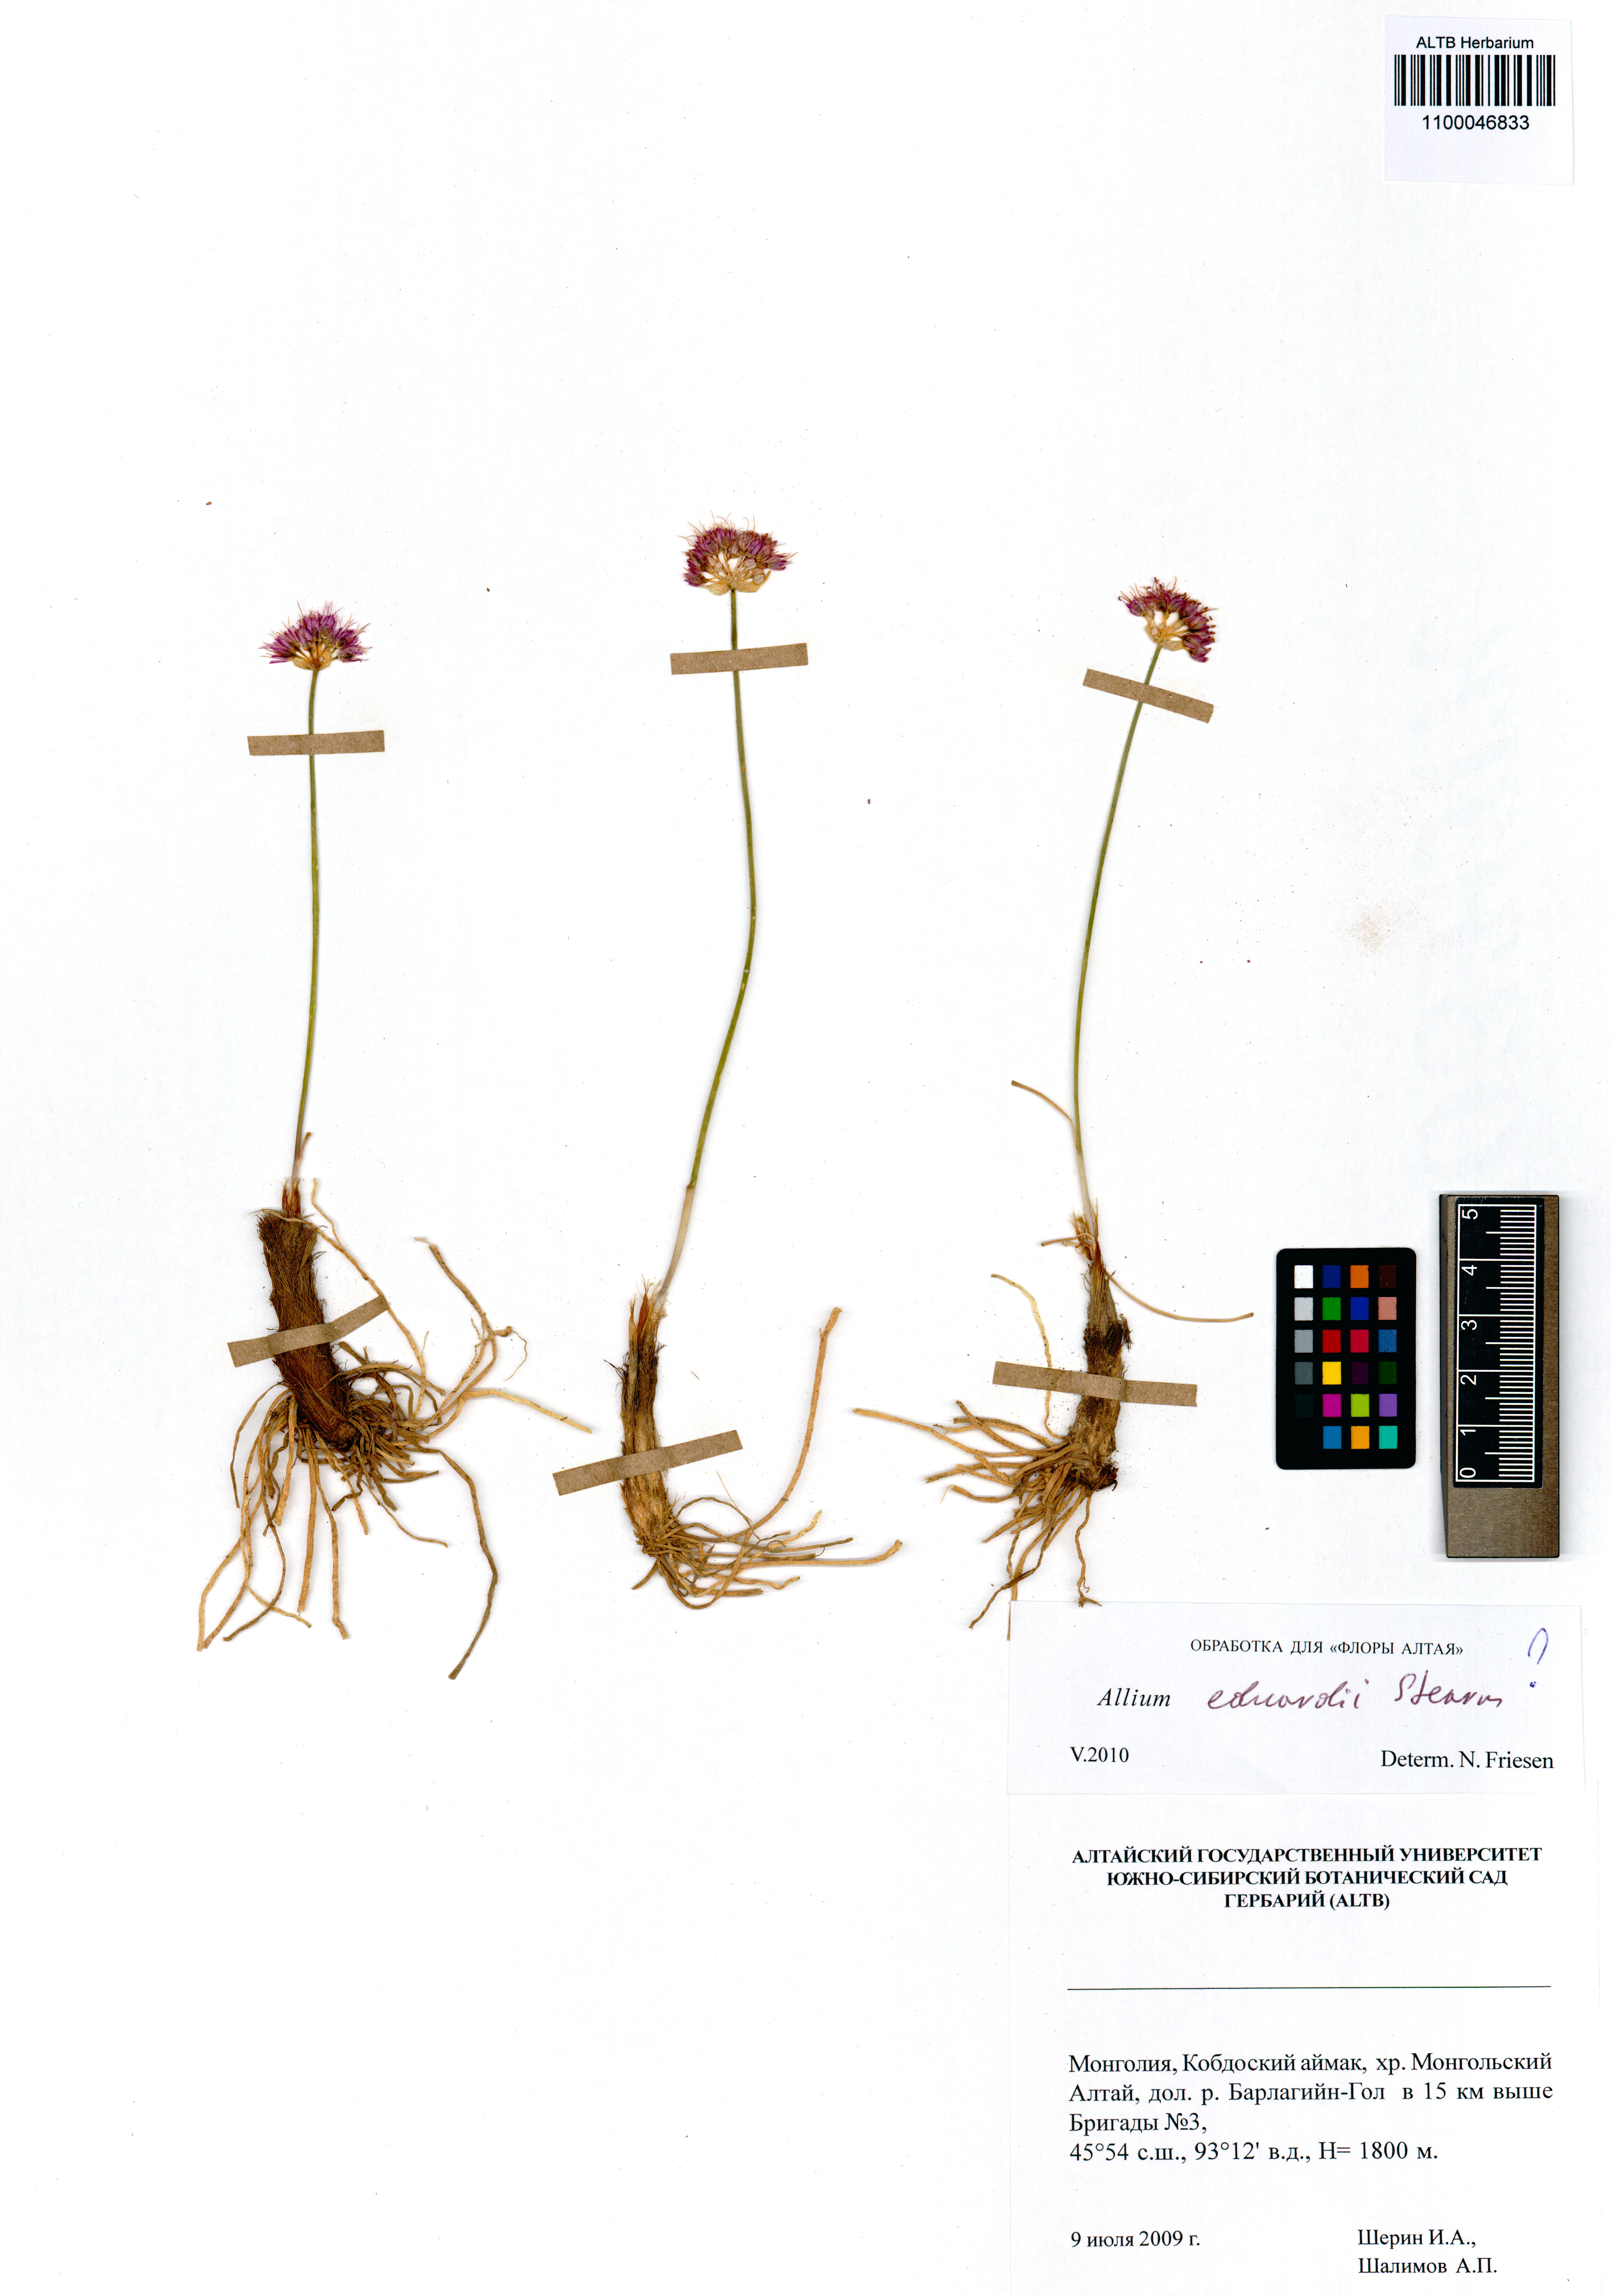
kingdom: Plantae
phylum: Tracheophyta
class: Liliopsida
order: Asparagales
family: Amaryllidaceae
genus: Allium
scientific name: Allium eduardi
